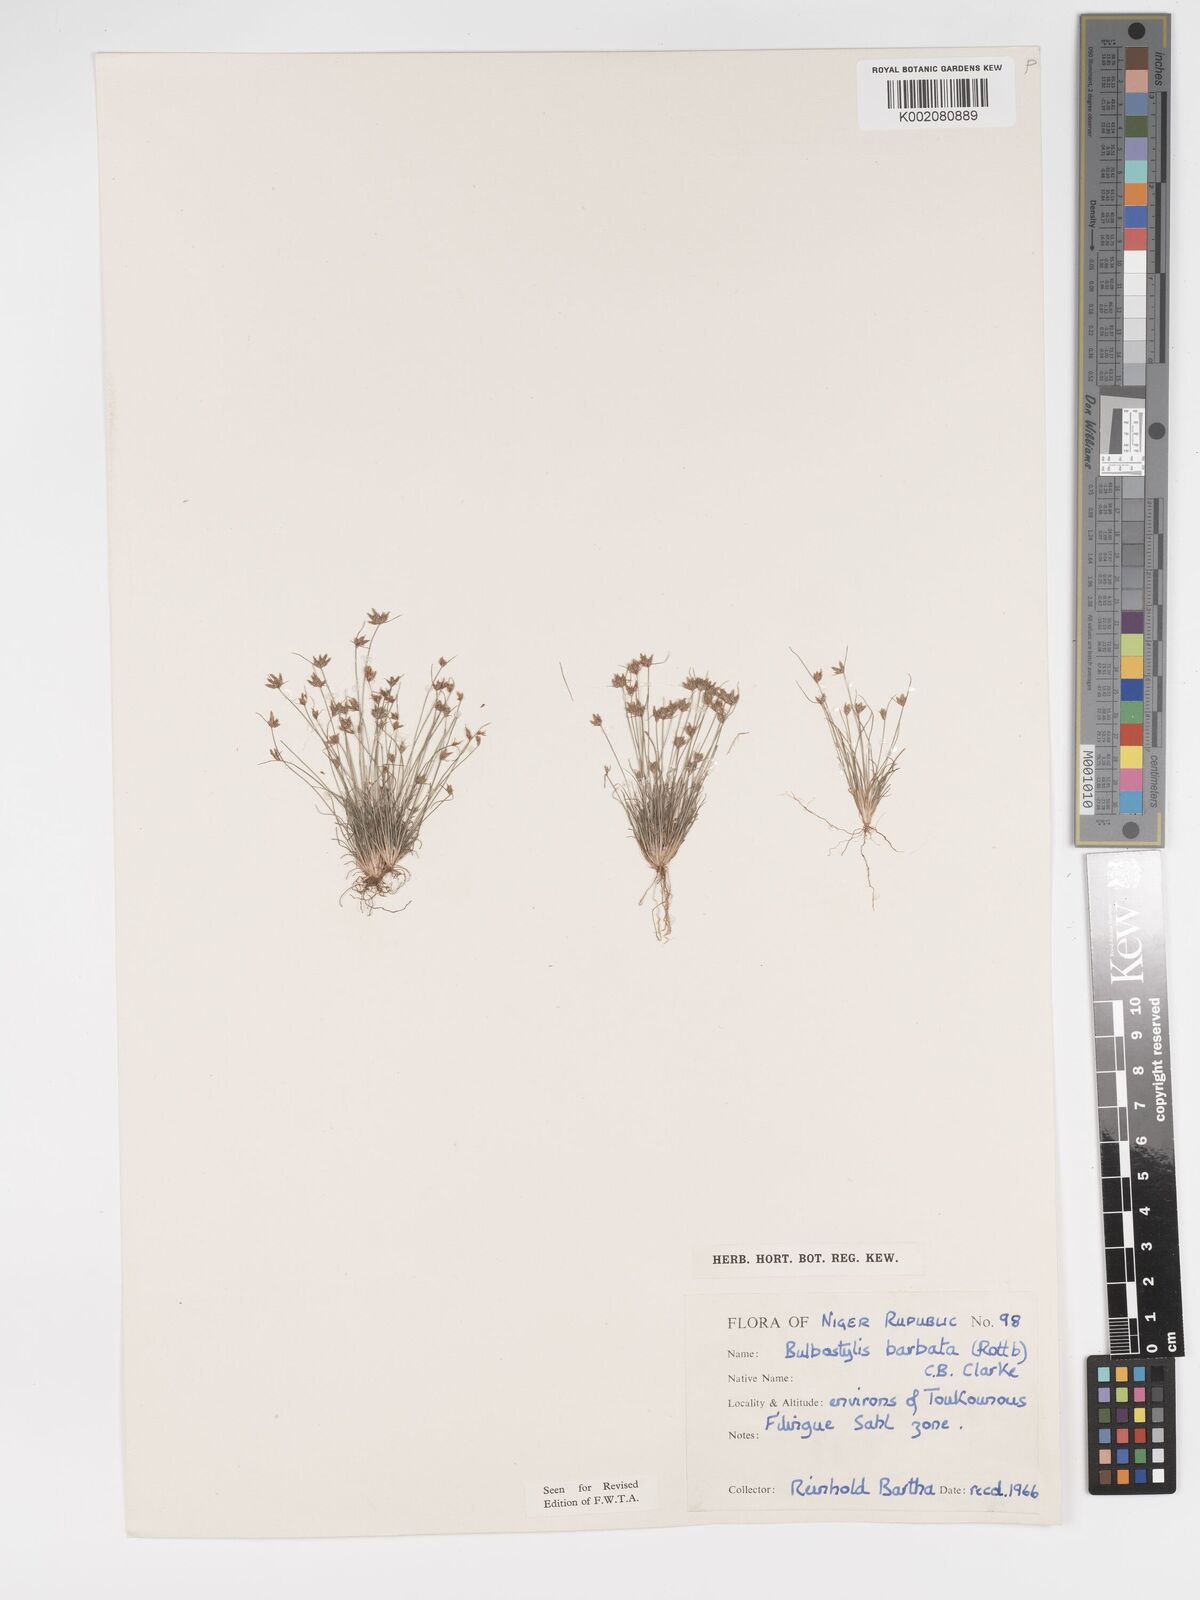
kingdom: Plantae
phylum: Tracheophyta
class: Liliopsida
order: Poales
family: Cyperaceae
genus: Bulbostylis
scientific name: Bulbostylis barbata
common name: Watergrass
